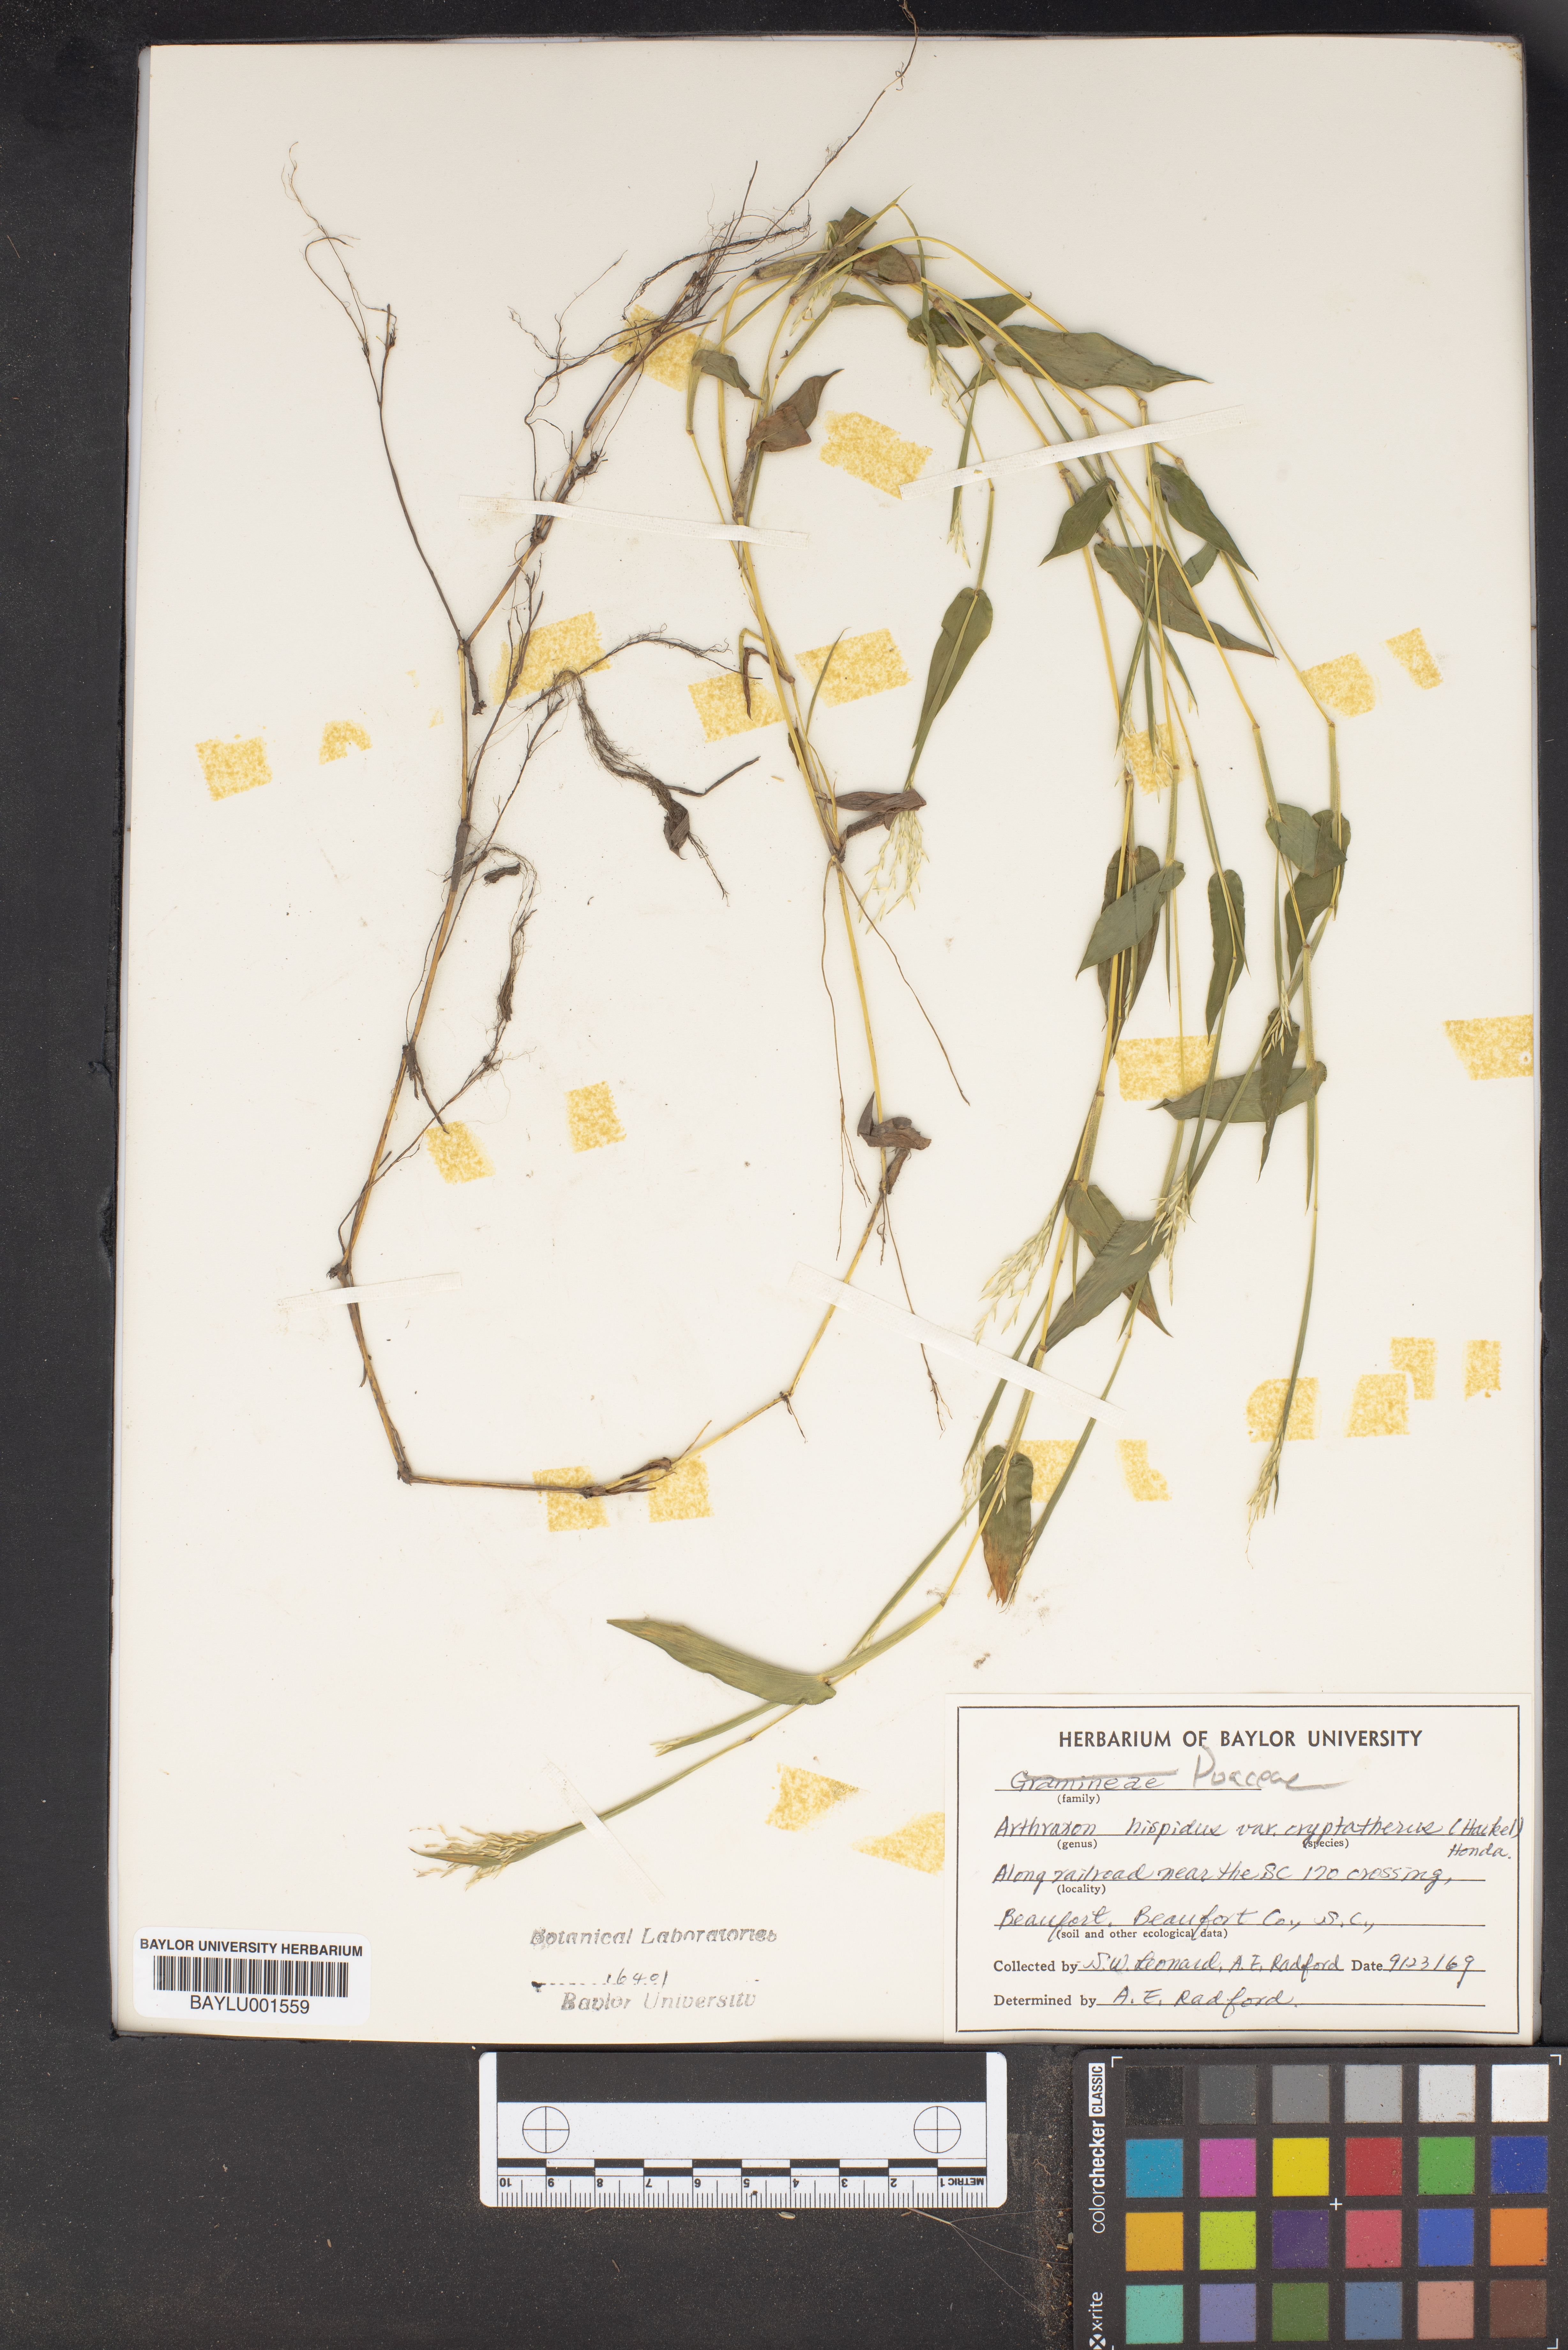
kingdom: Plantae
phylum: Tracheophyta
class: Liliopsida
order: Poales
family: Poaceae
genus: Arthraxon
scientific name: Arthraxon hispidus
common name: Small carpgrass
